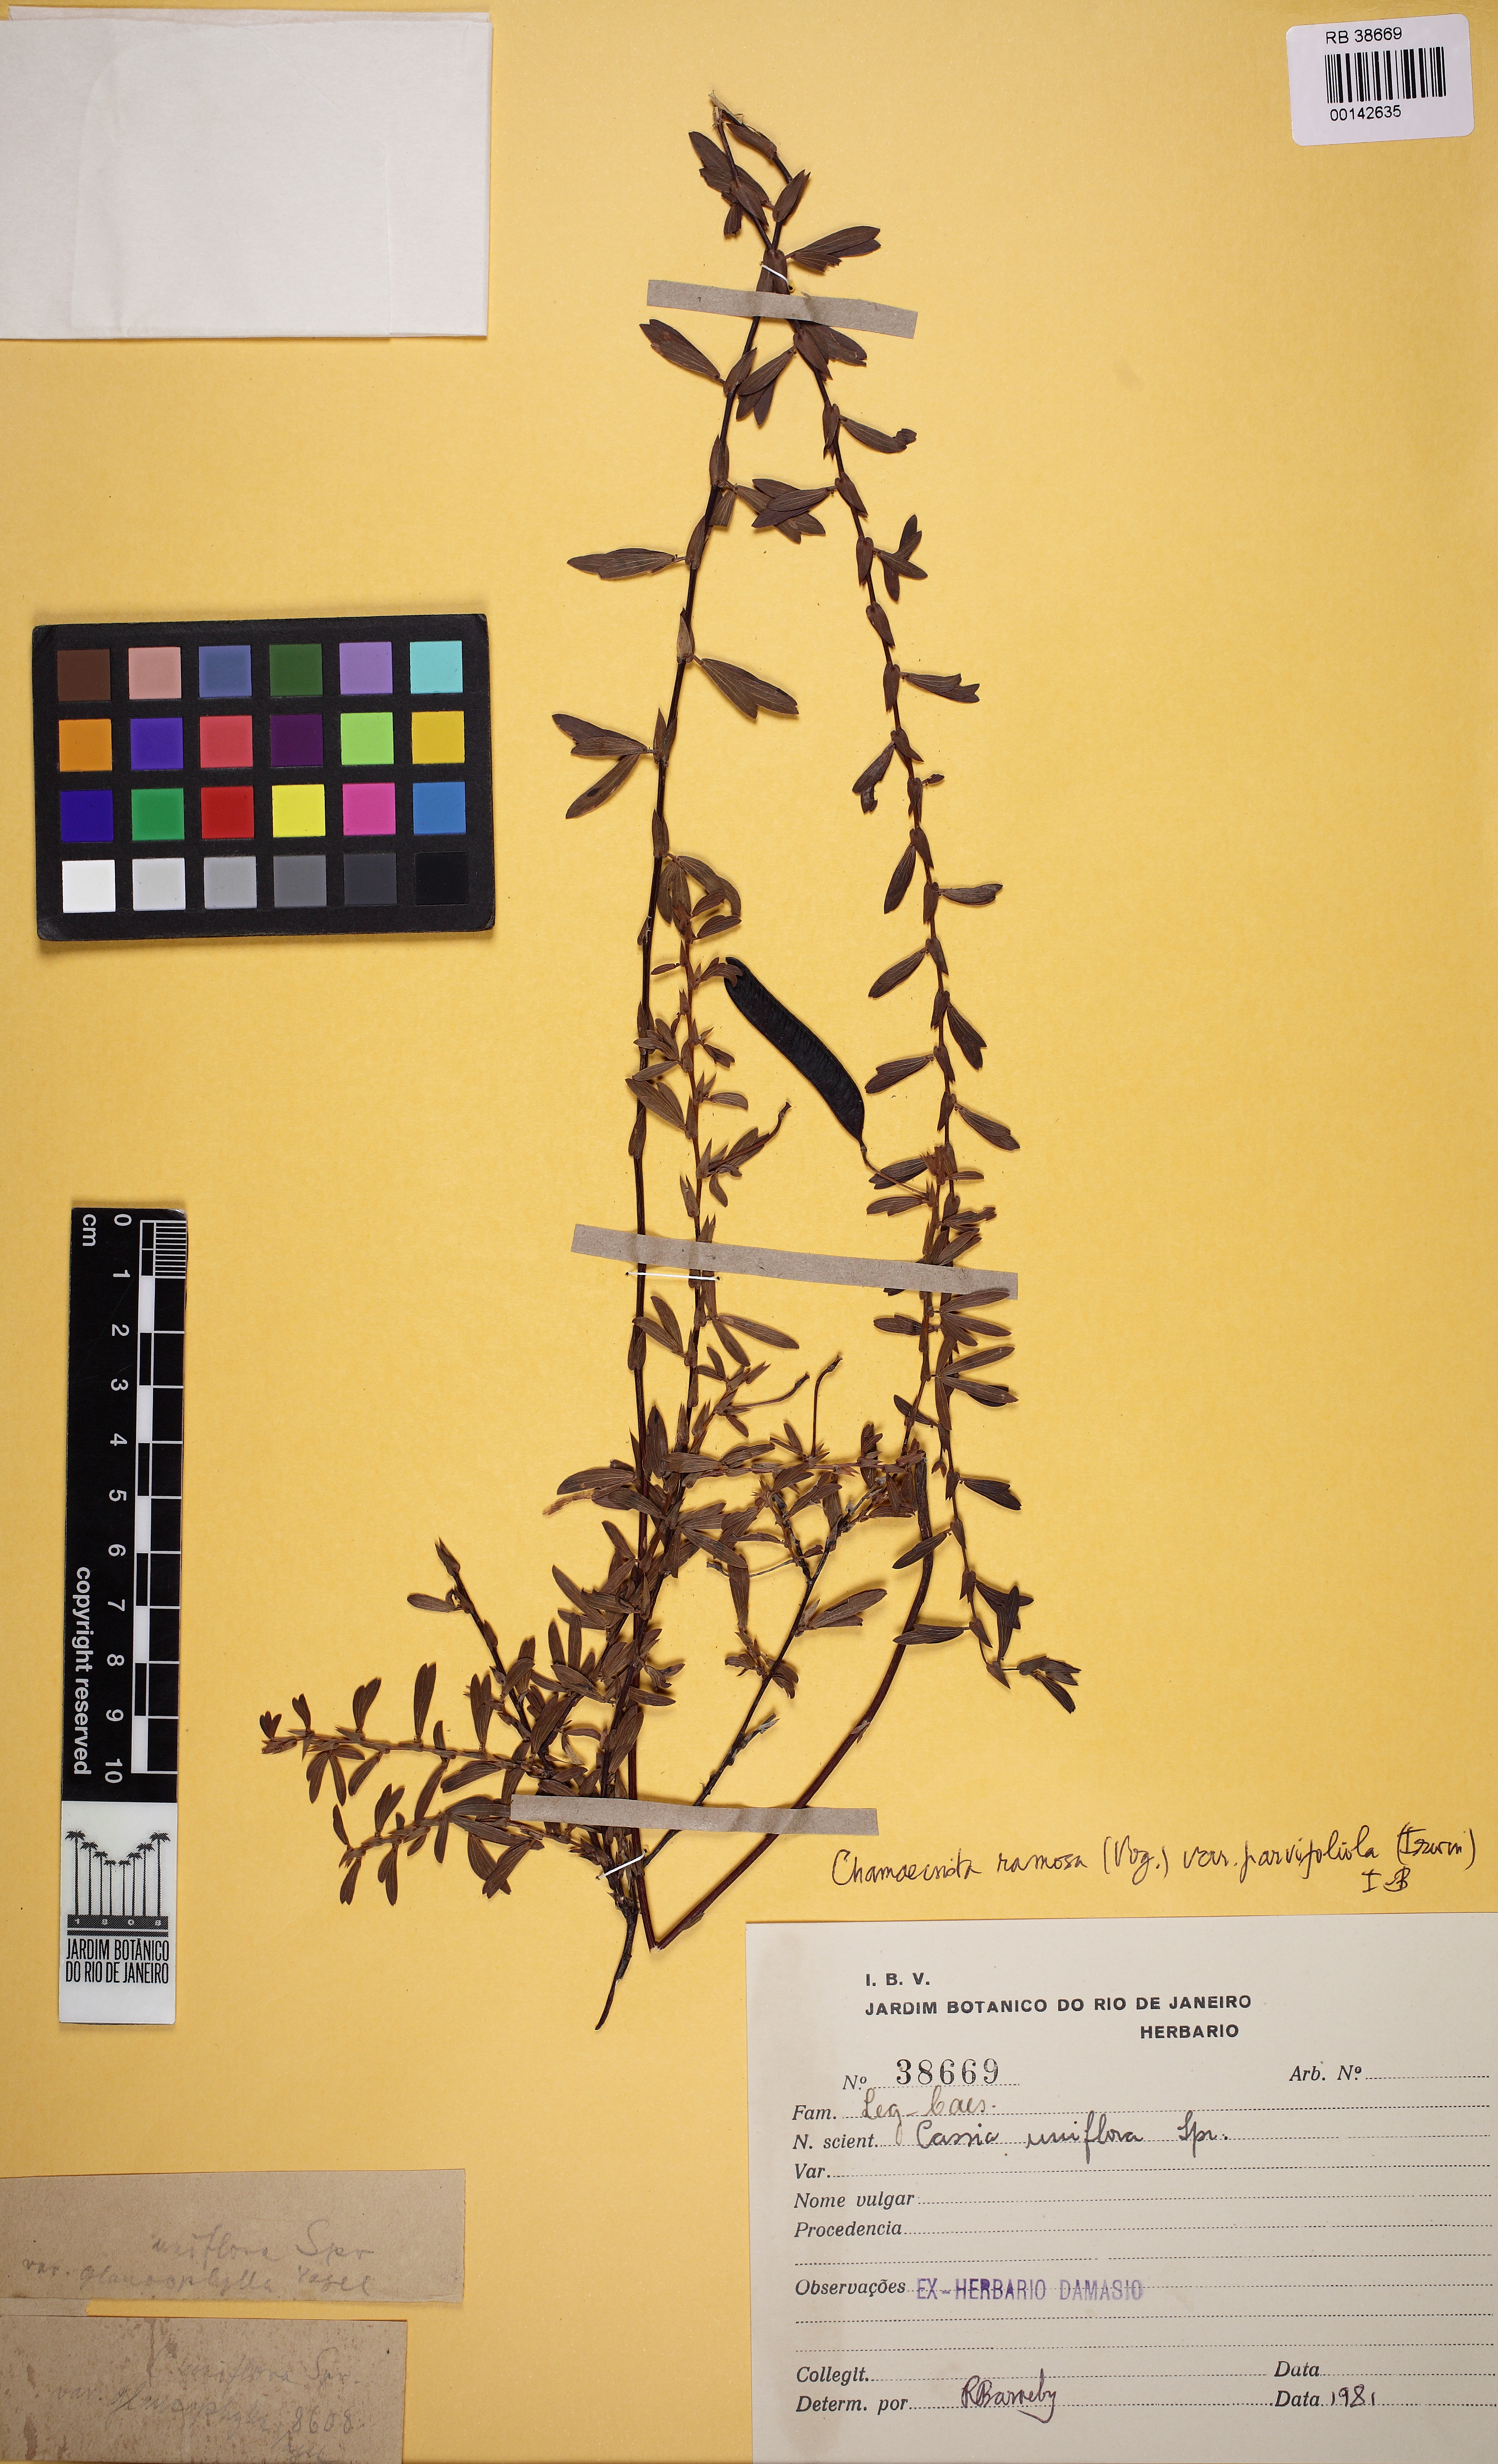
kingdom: Plantae
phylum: Tracheophyta
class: Magnoliopsida
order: Fabales
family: Fabaceae
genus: Chamaecrista
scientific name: Chamaecrista ramosa
